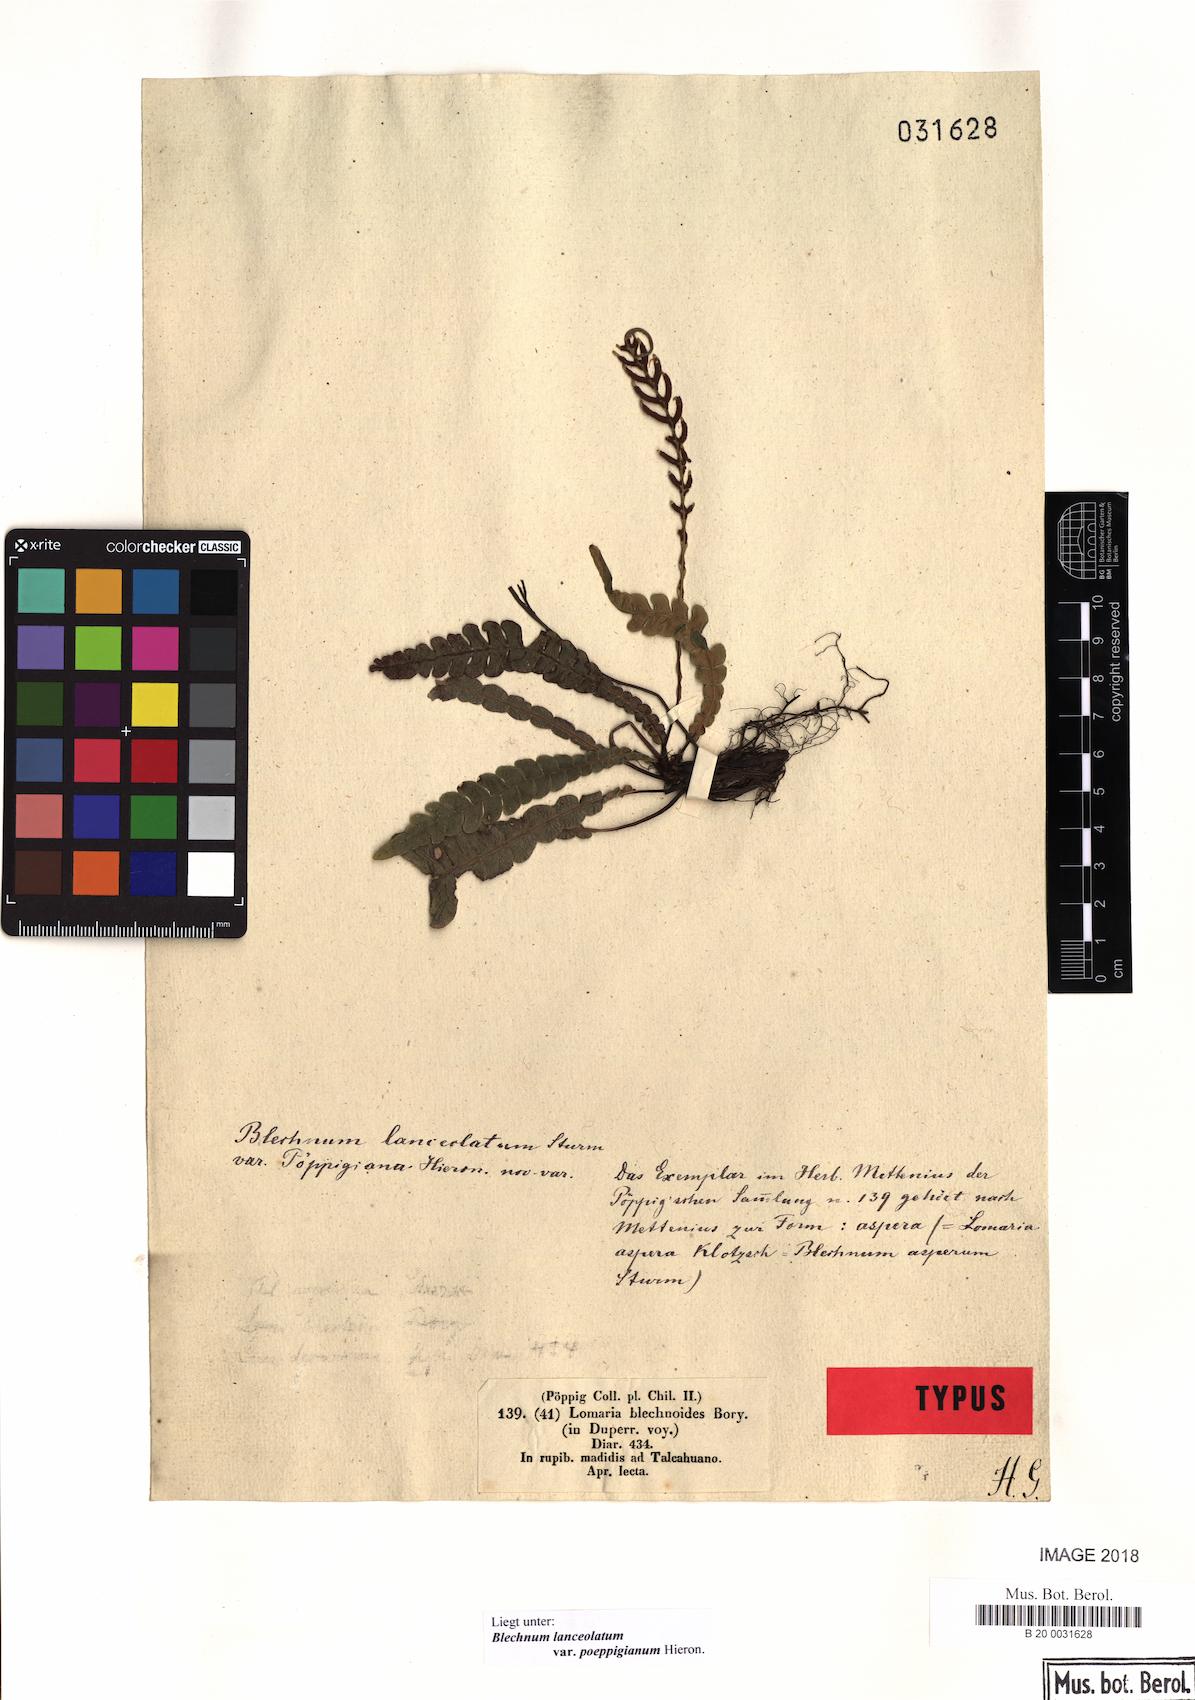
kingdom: Plantae
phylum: Tracheophyta
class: Polypodiopsida
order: Polypodiales
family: Blechnaceae
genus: Austroblechnum
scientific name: Austroblechnum microphyllum
